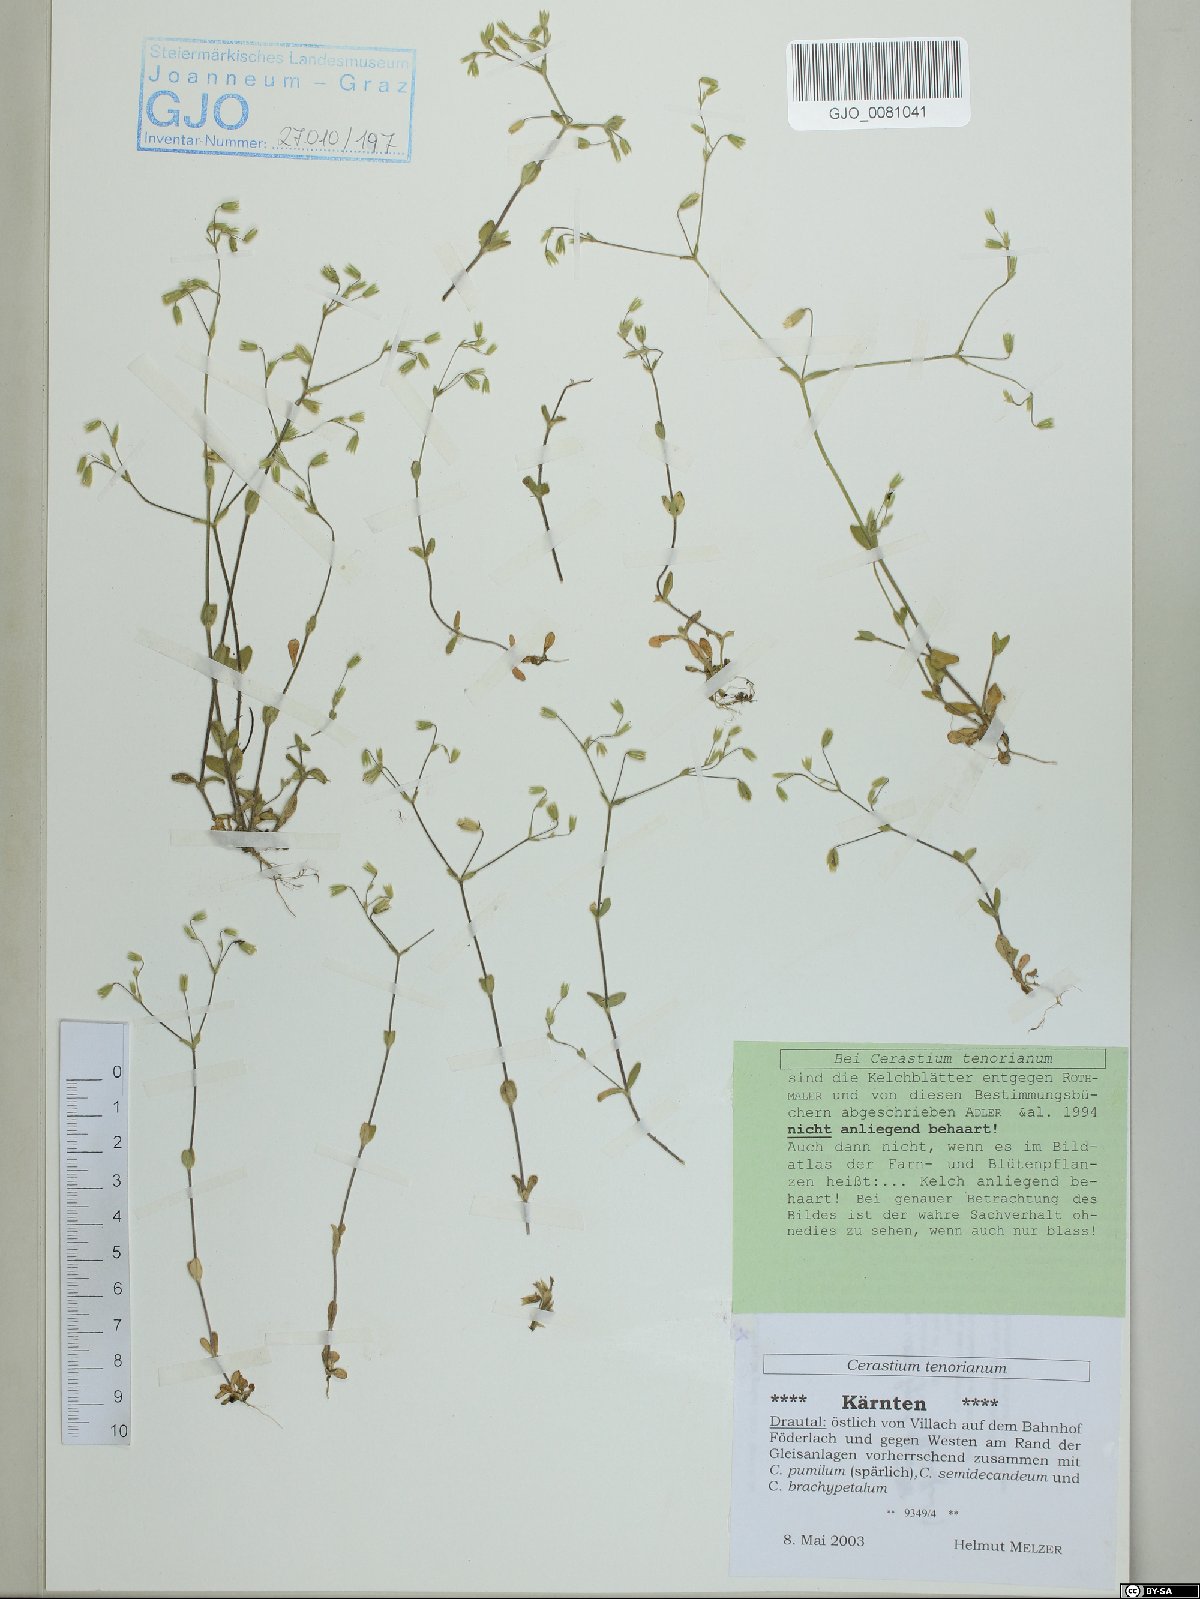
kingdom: Plantae
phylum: Tracheophyta
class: Magnoliopsida
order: Caryophyllales
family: Caryophyllaceae
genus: Cerastium
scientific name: Cerastium tenoreanum
